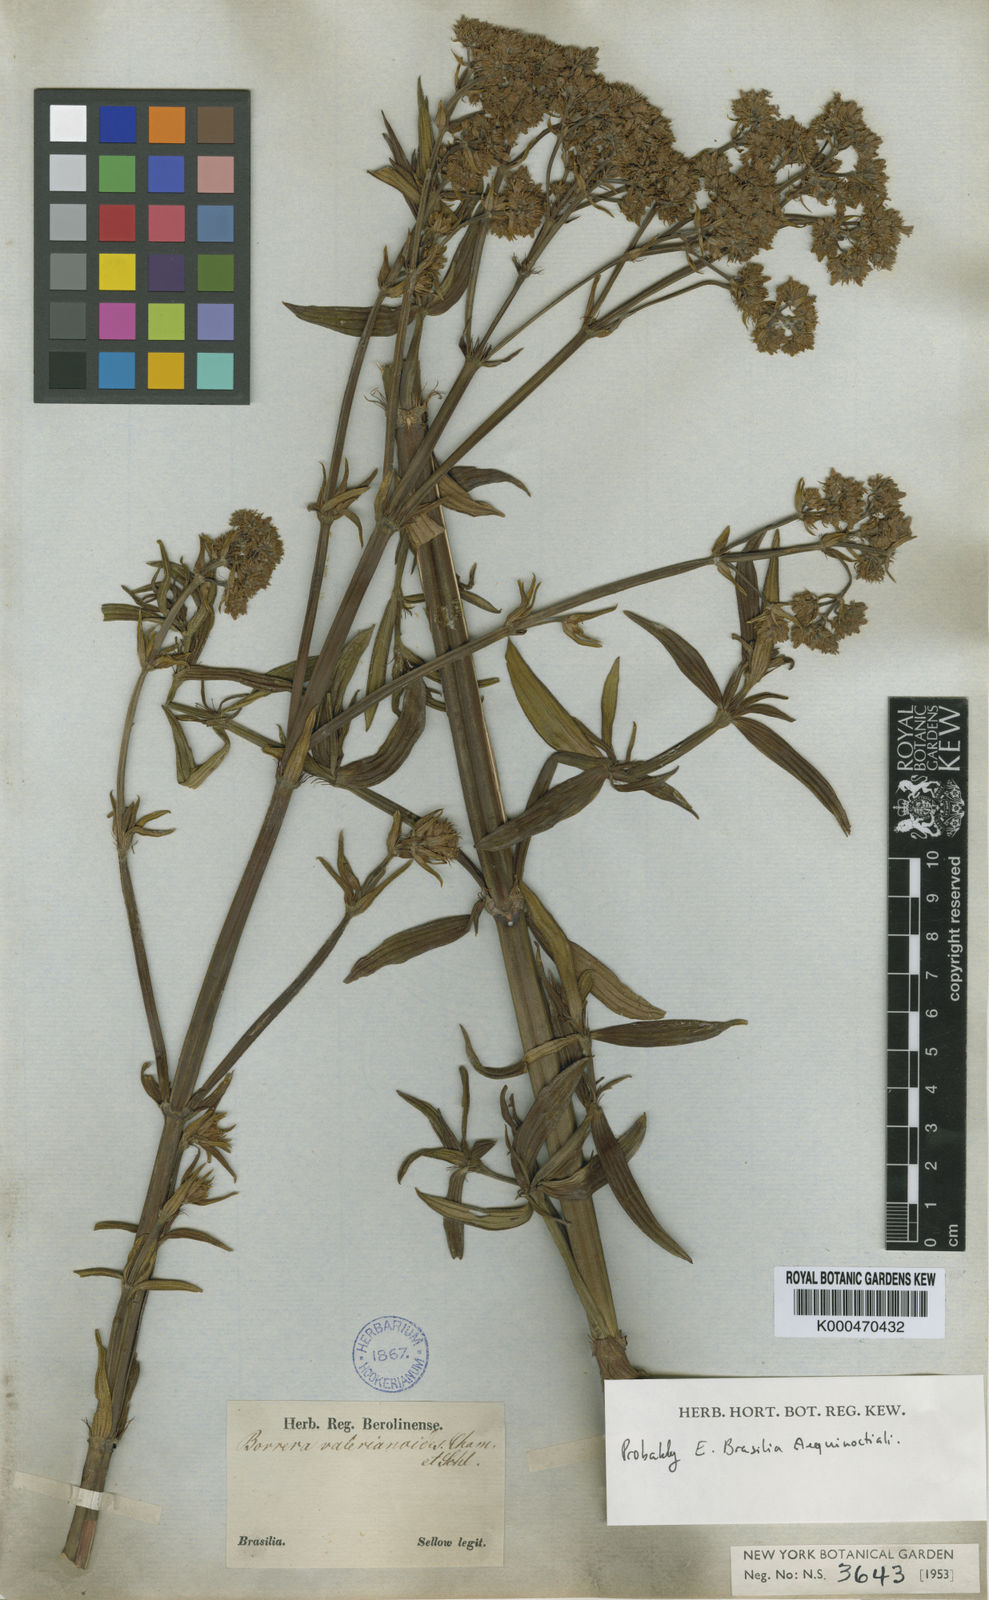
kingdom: Plantae
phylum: Tracheophyta
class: Magnoliopsida
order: Gentianales
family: Rubiaceae
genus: Galianthe
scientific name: Galianthe valerianoides
